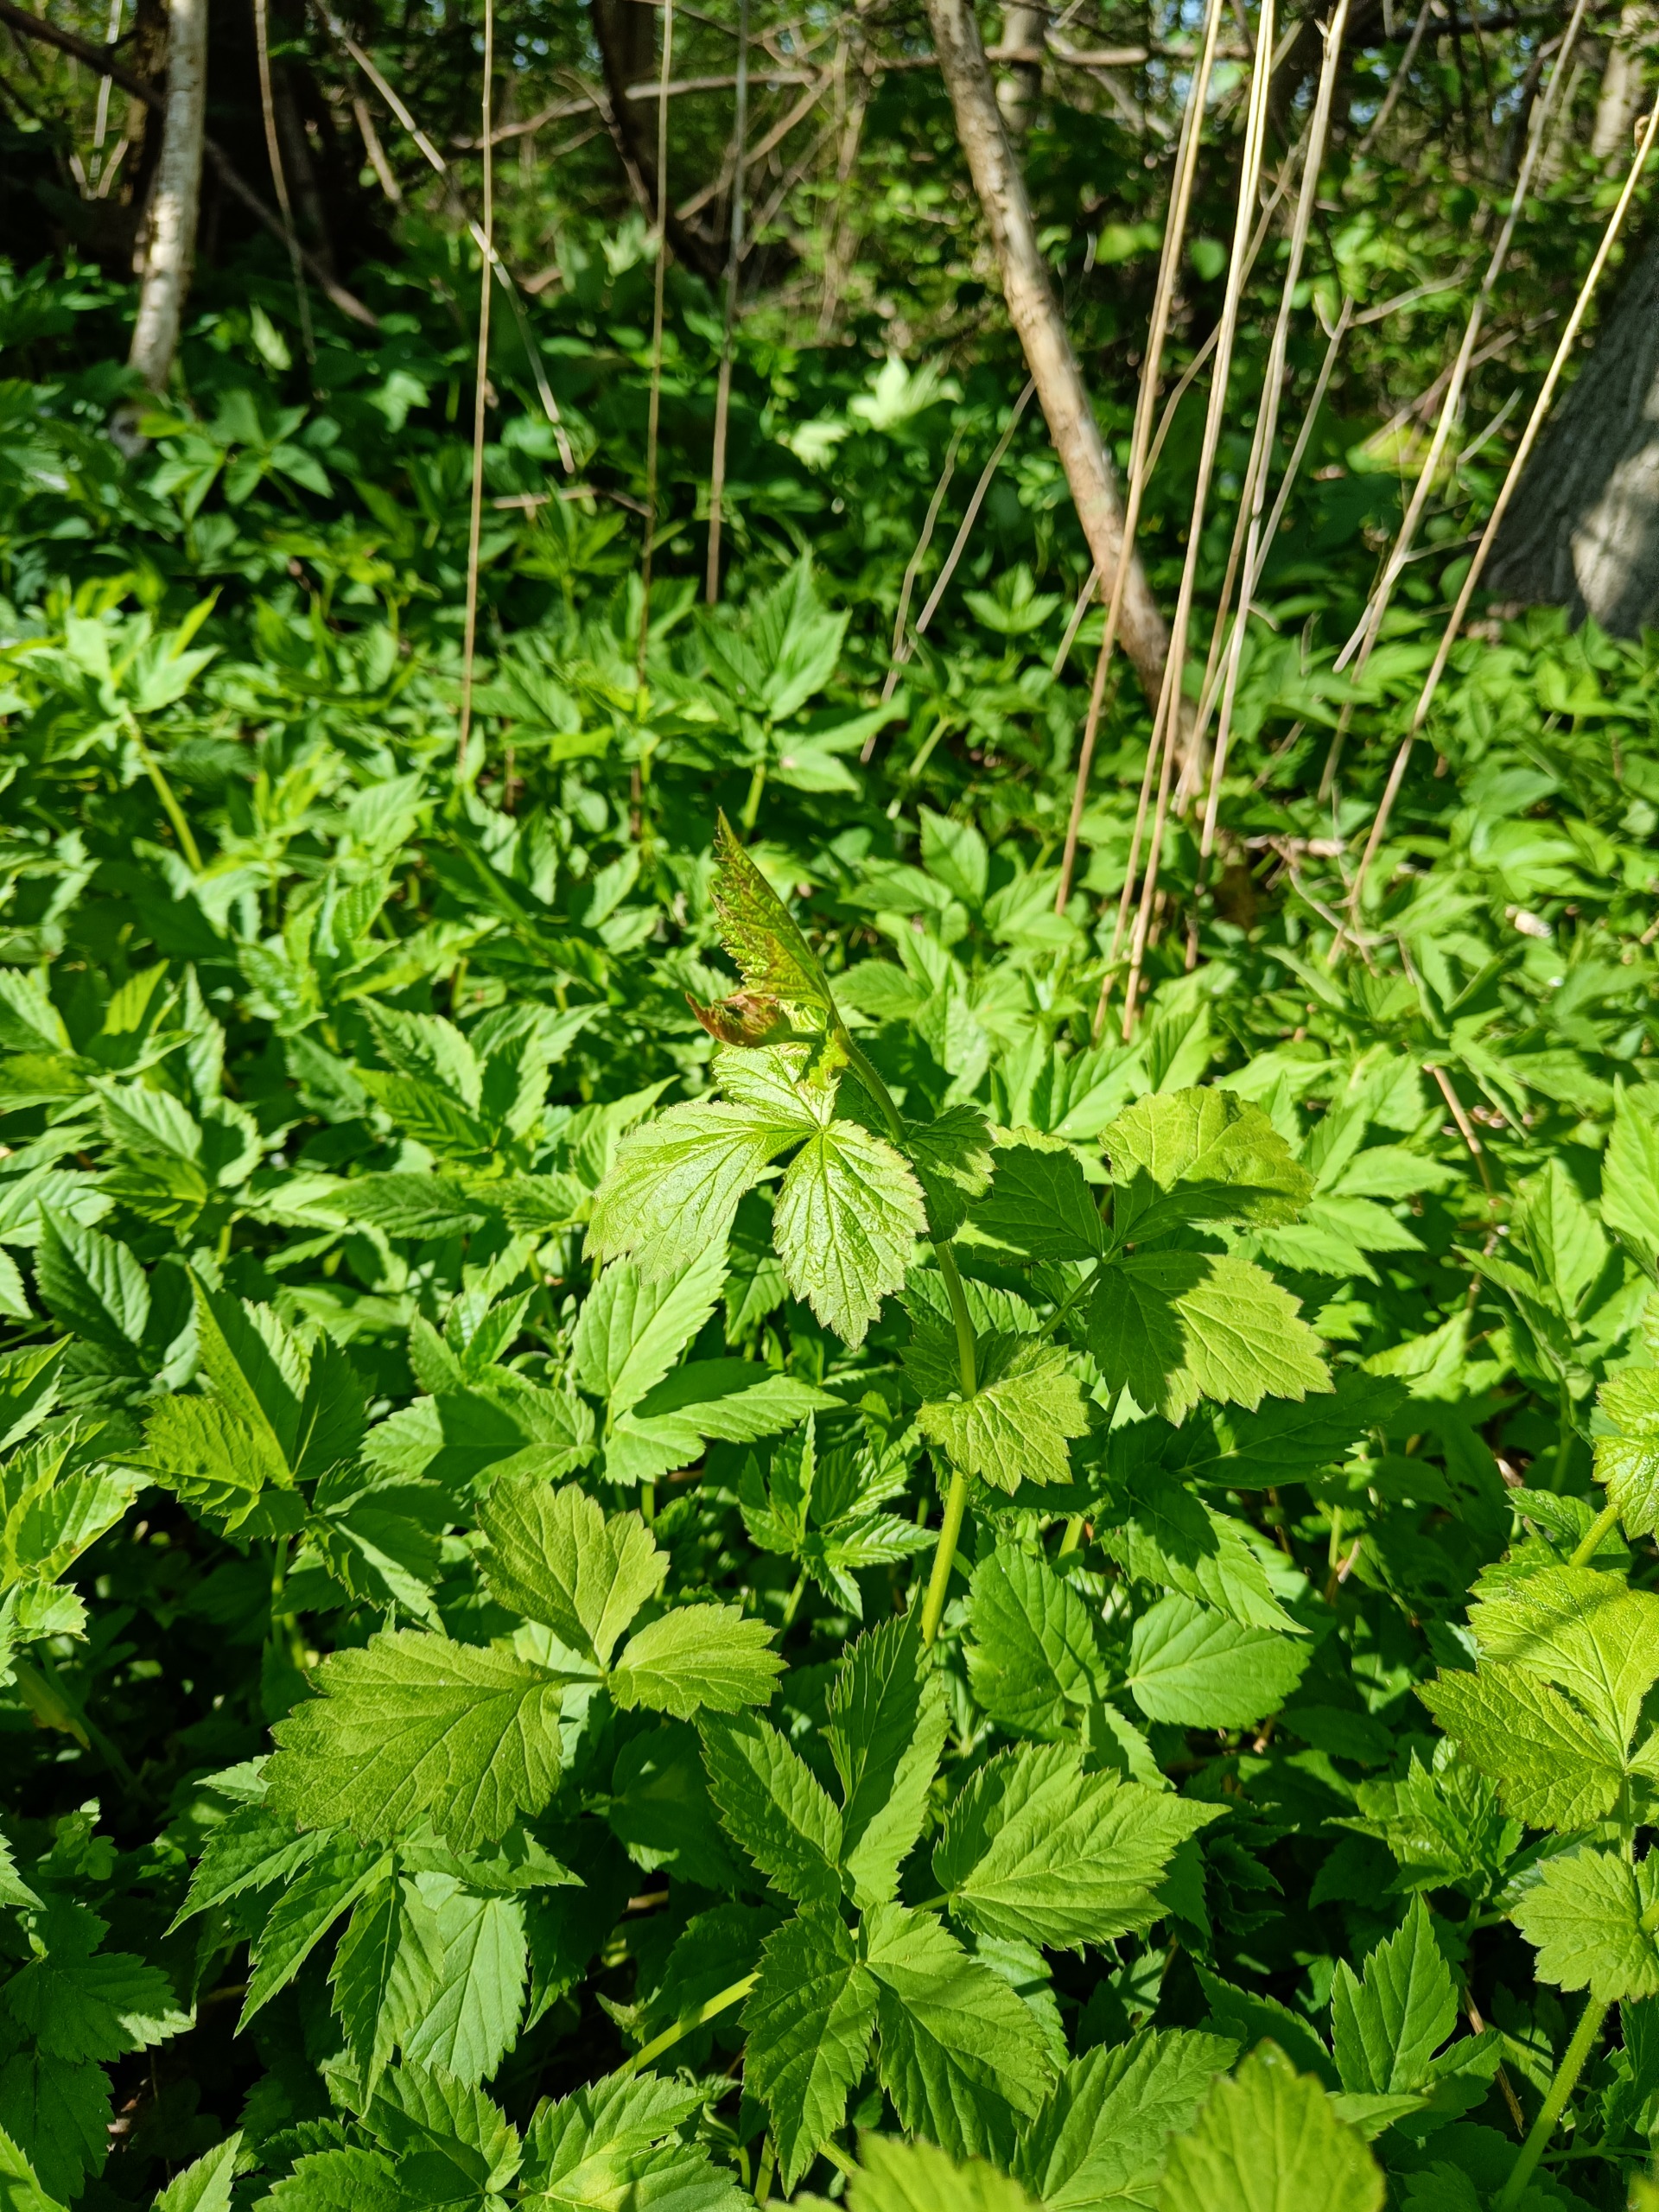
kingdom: Plantae
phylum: Tracheophyta
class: Magnoliopsida
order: Rosales
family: Rosaceae
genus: Geum
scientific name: Geum urbanum
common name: Feber-nellikerod
